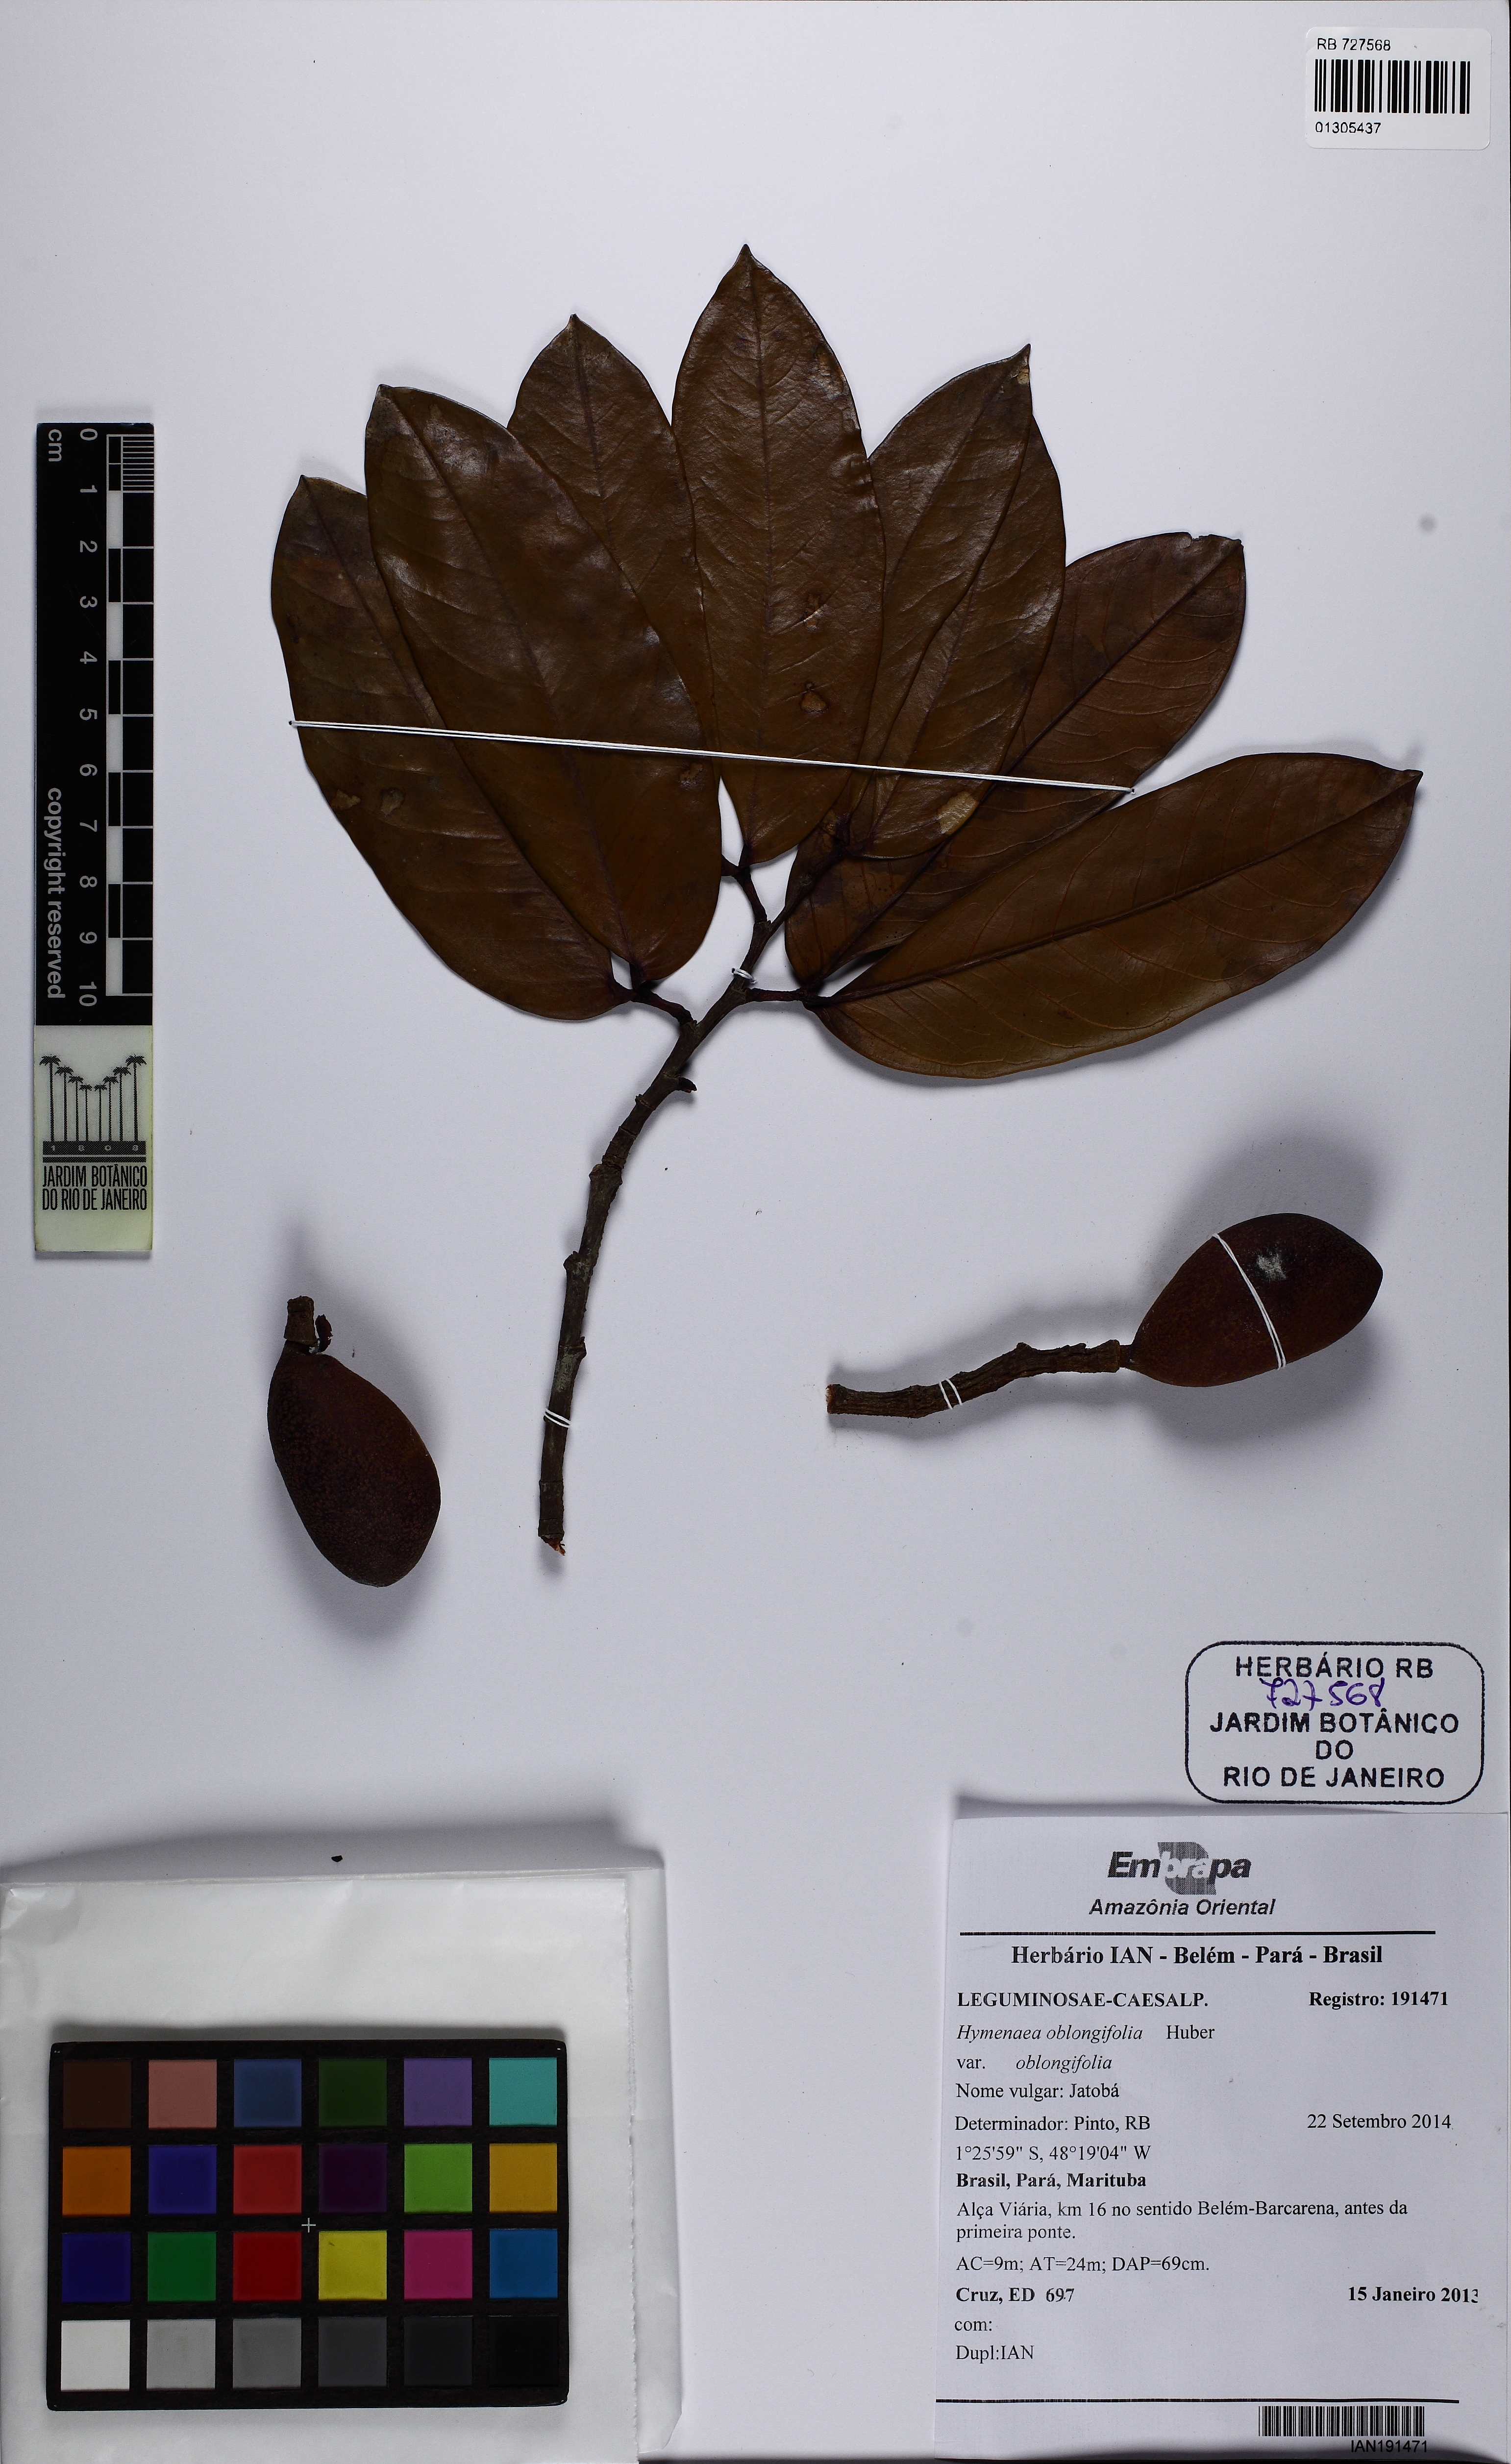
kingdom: Plantae
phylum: Tracheophyta
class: Magnoliopsida
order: Fabales
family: Fabaceae
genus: Hymenaea
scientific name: Hymenaea oblongifolia
